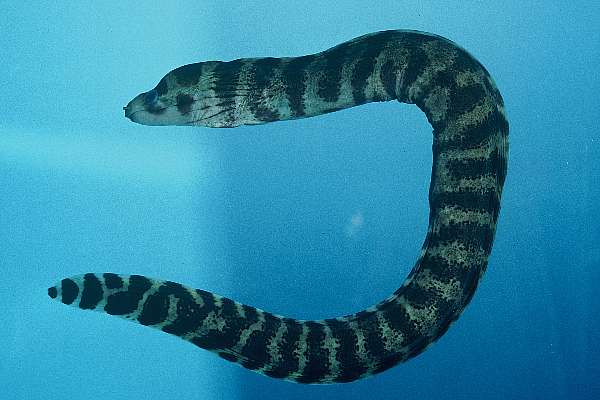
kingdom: Animalia
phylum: Chordata
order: Anguilliformes
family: Muraenidae
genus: Echidna
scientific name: Echidna polyzona
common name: Barred moray
